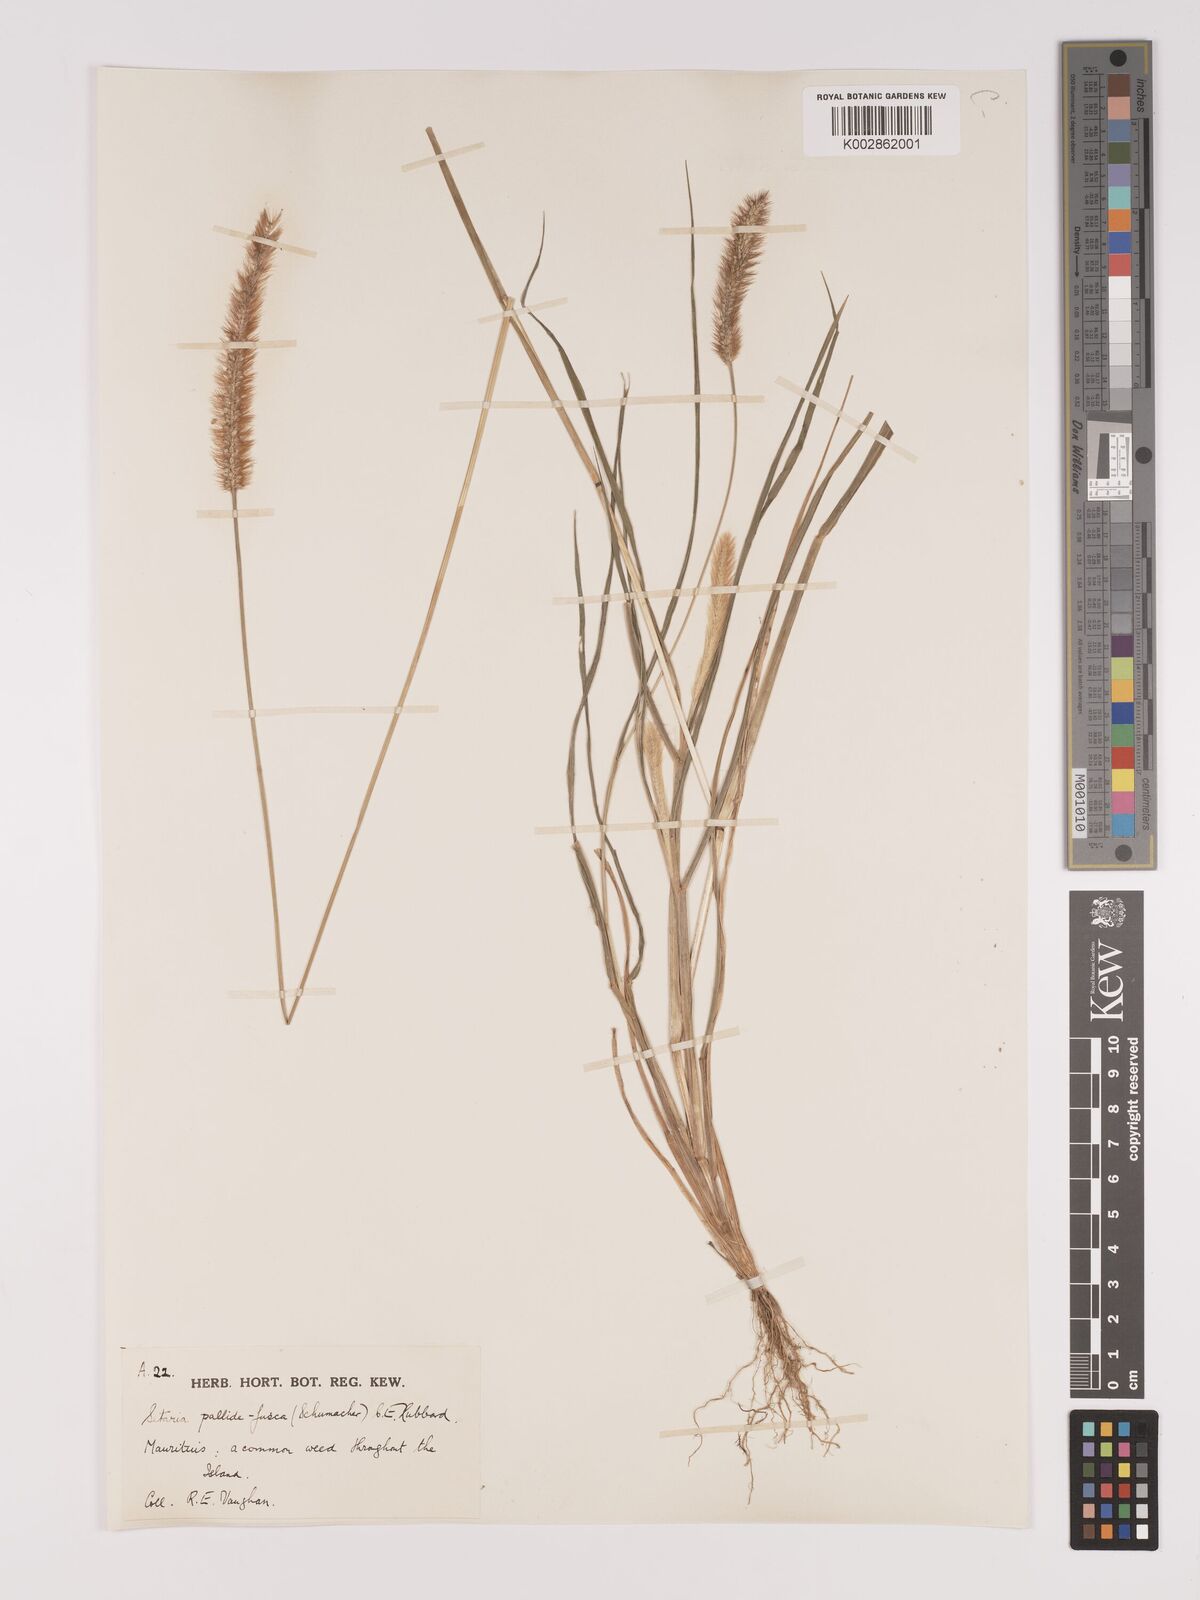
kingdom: Plantae
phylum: Tracheophyta
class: Liliopsida
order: Poales
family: Poaceae
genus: Setaria
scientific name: Setaria pumila
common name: Yellow bristle-grass
